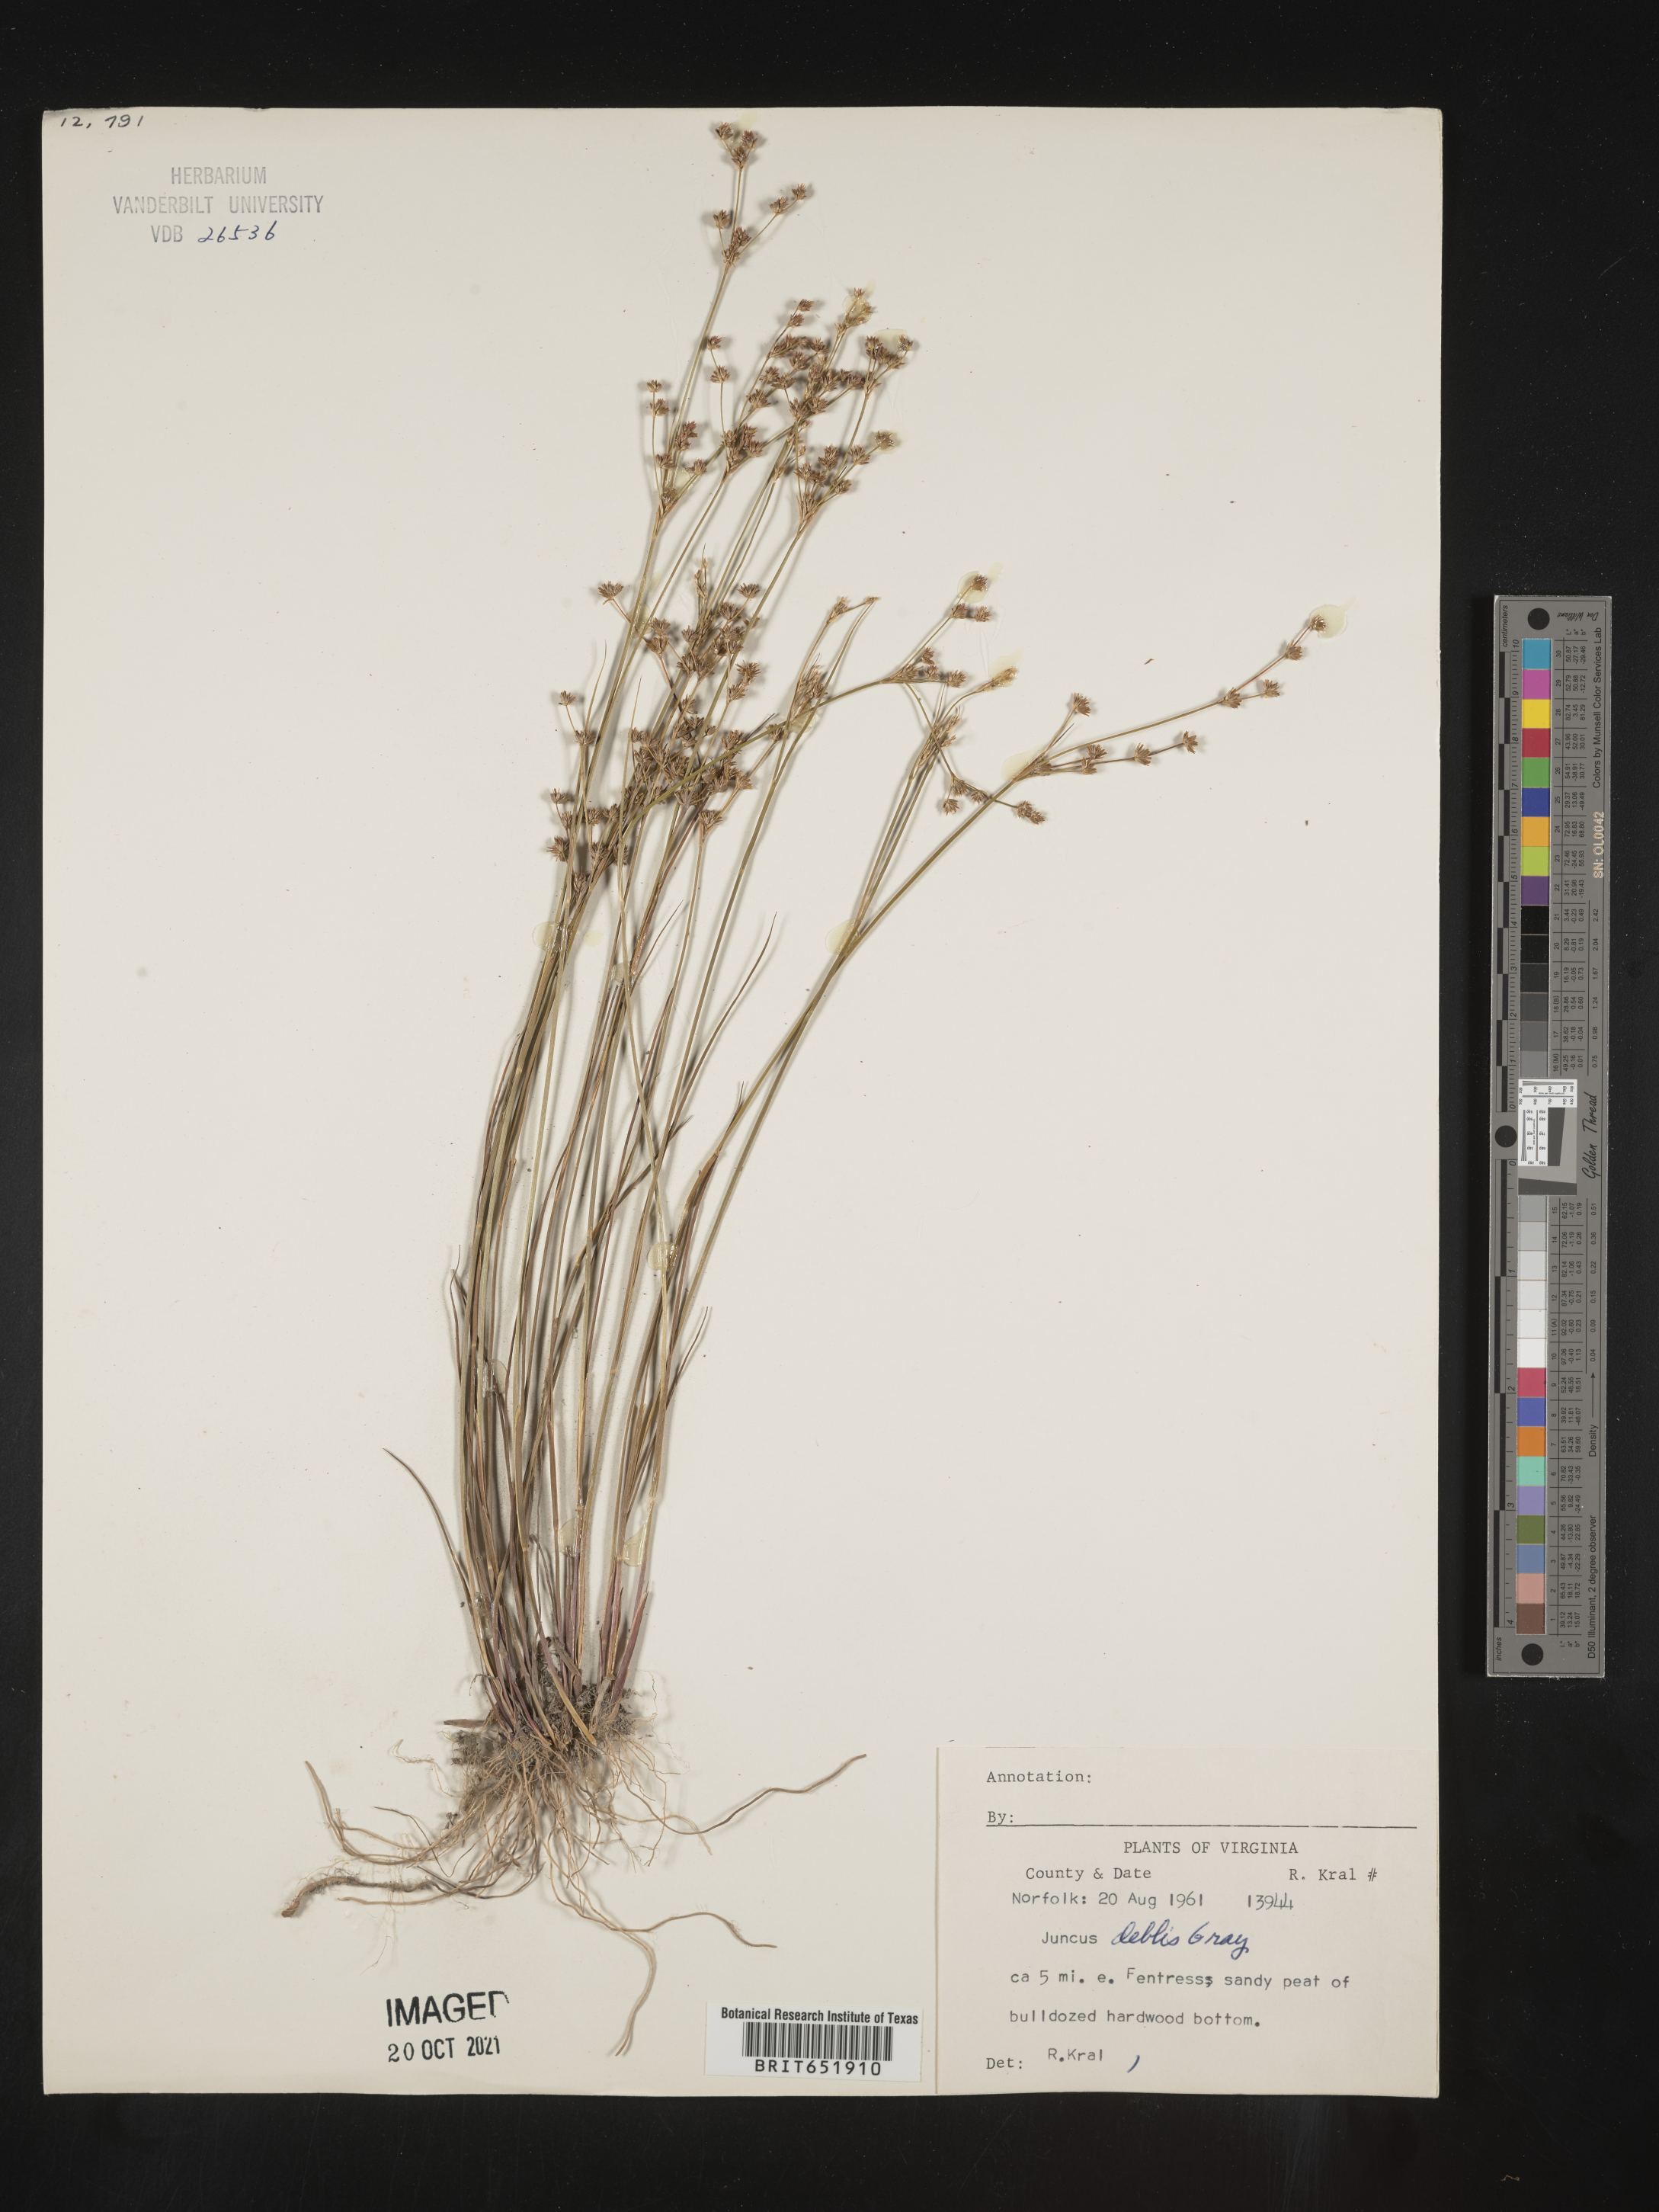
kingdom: Plantae
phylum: Tracheophyta
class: Liliopsida
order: Poales
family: Juncaceae
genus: Juncus
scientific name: Juncus debilis
